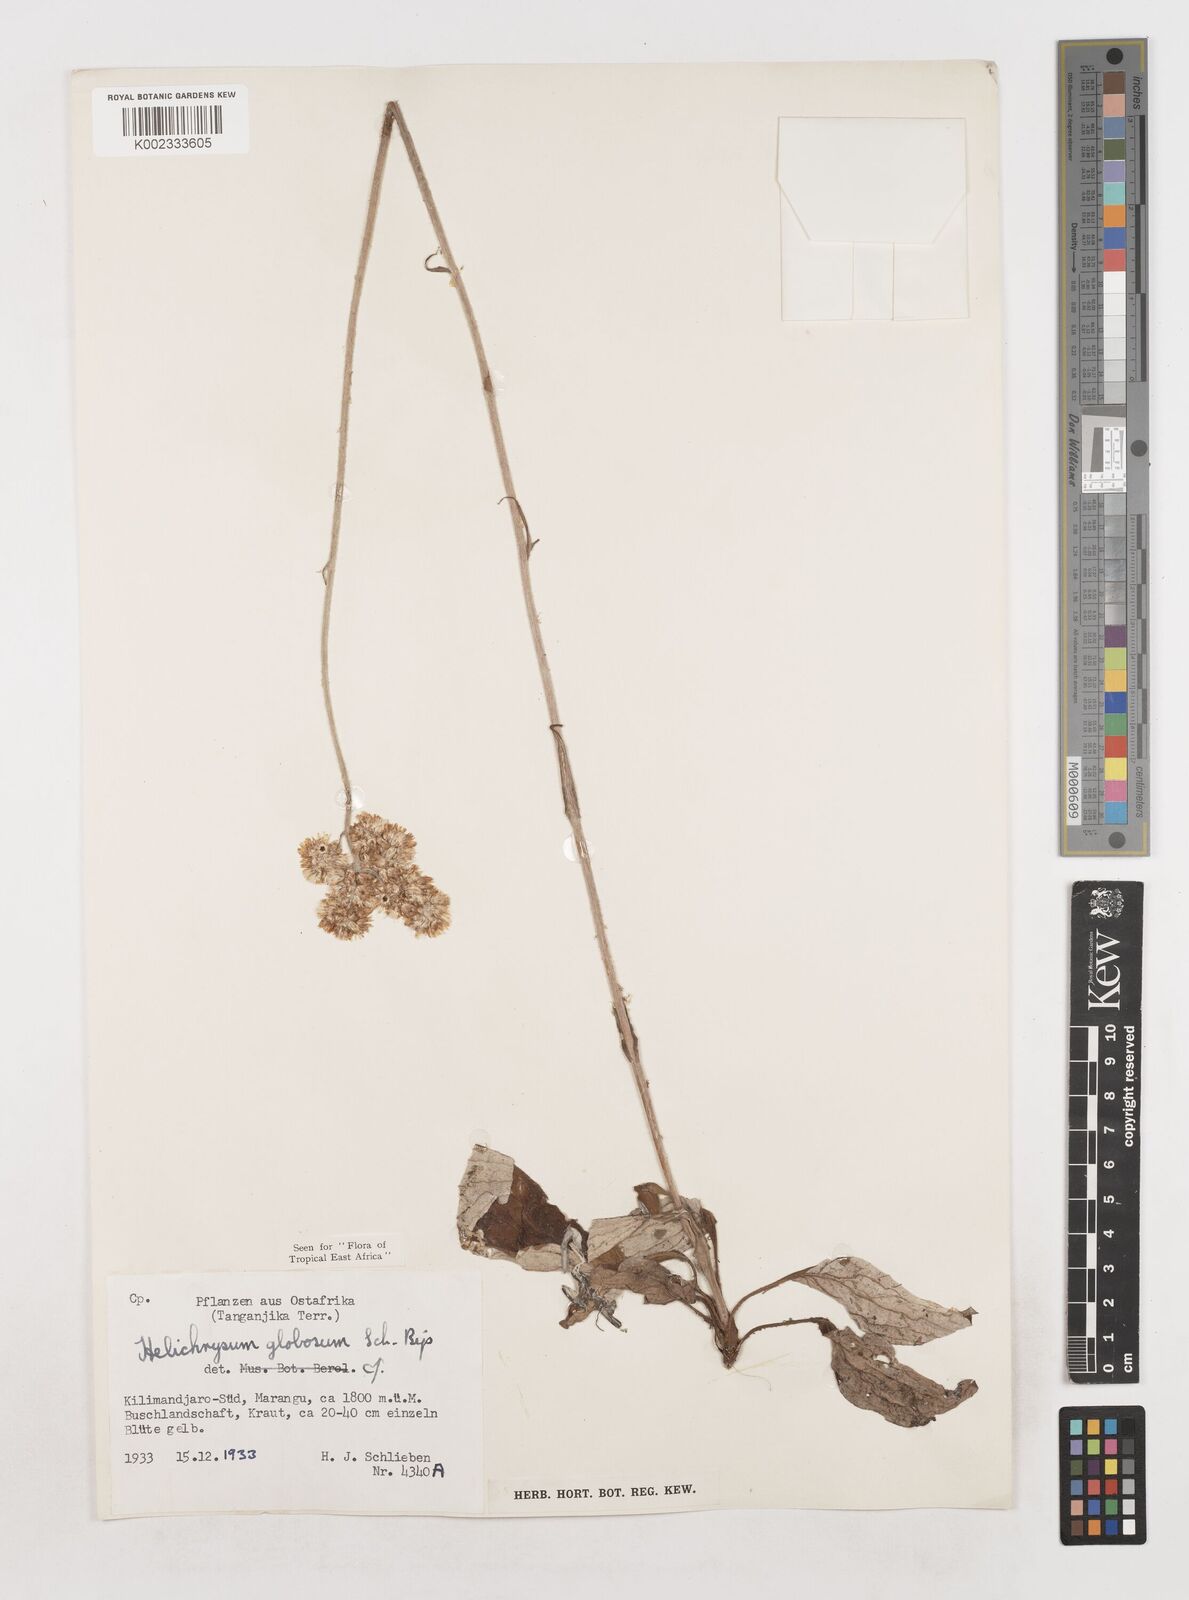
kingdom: Plantae
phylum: Tracheophyta
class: Magnoliopsida
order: Asterales
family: Asteraceae
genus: Helichrysum
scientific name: Helichrysum globosum
